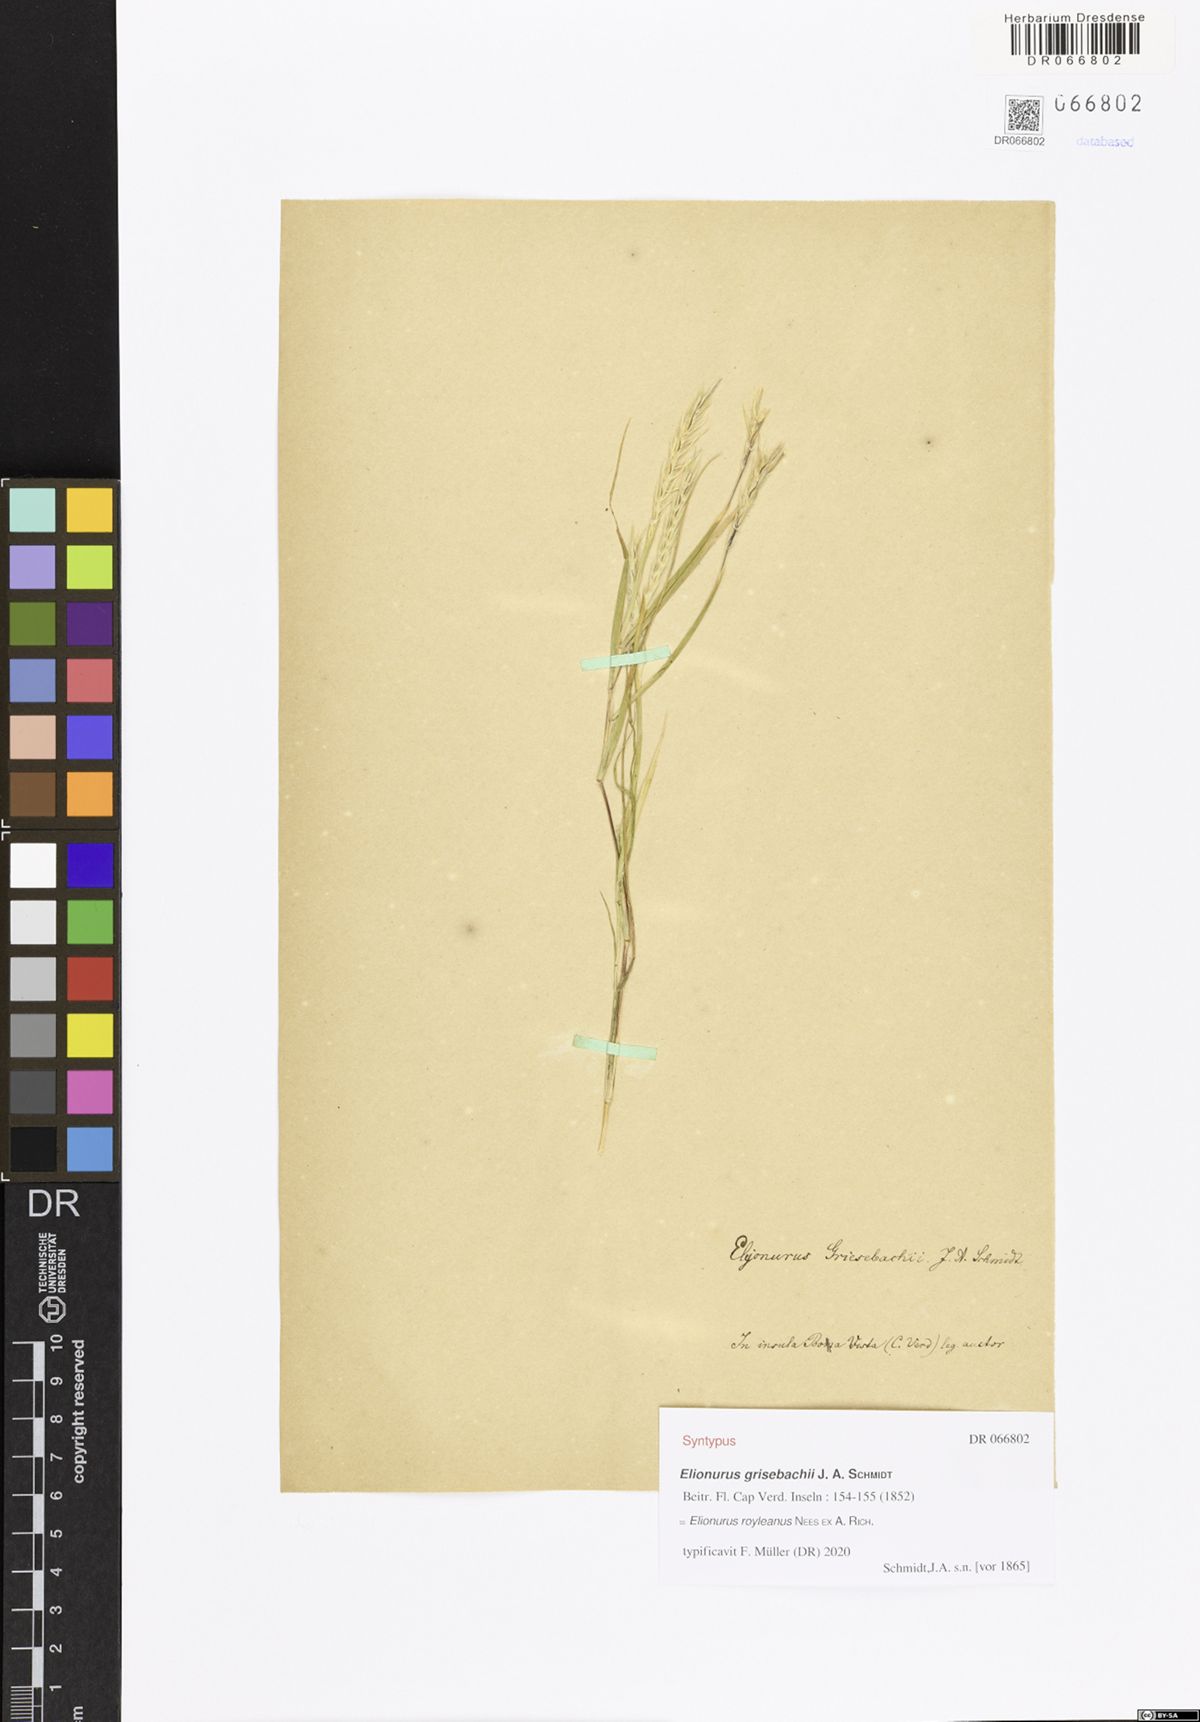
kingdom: Plantae
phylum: Tracheophyta
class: Liliopsida
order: Poales
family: Poaceae
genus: Elionurus
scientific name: Elionurus royleanus
